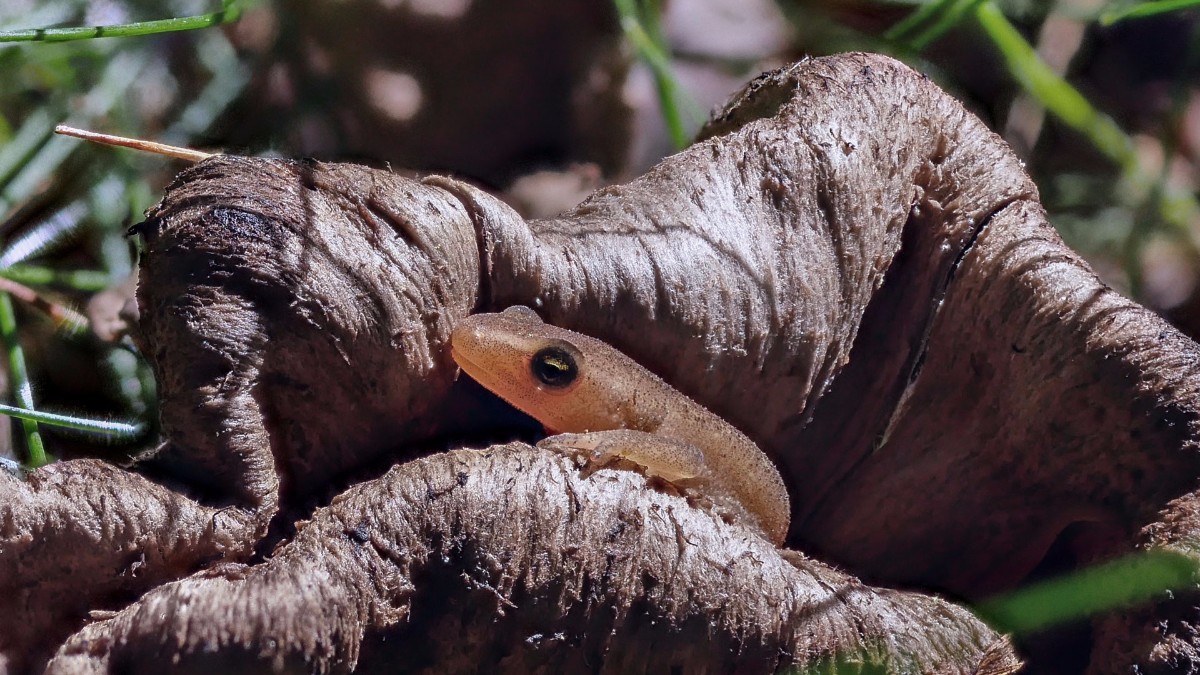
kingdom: Fungi
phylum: Basidiomycota
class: Agaricomycetes
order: Cantharellales
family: Hydnaceae
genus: Craterellus
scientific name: Craterellus cornucopioides
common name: trompetsvamp
